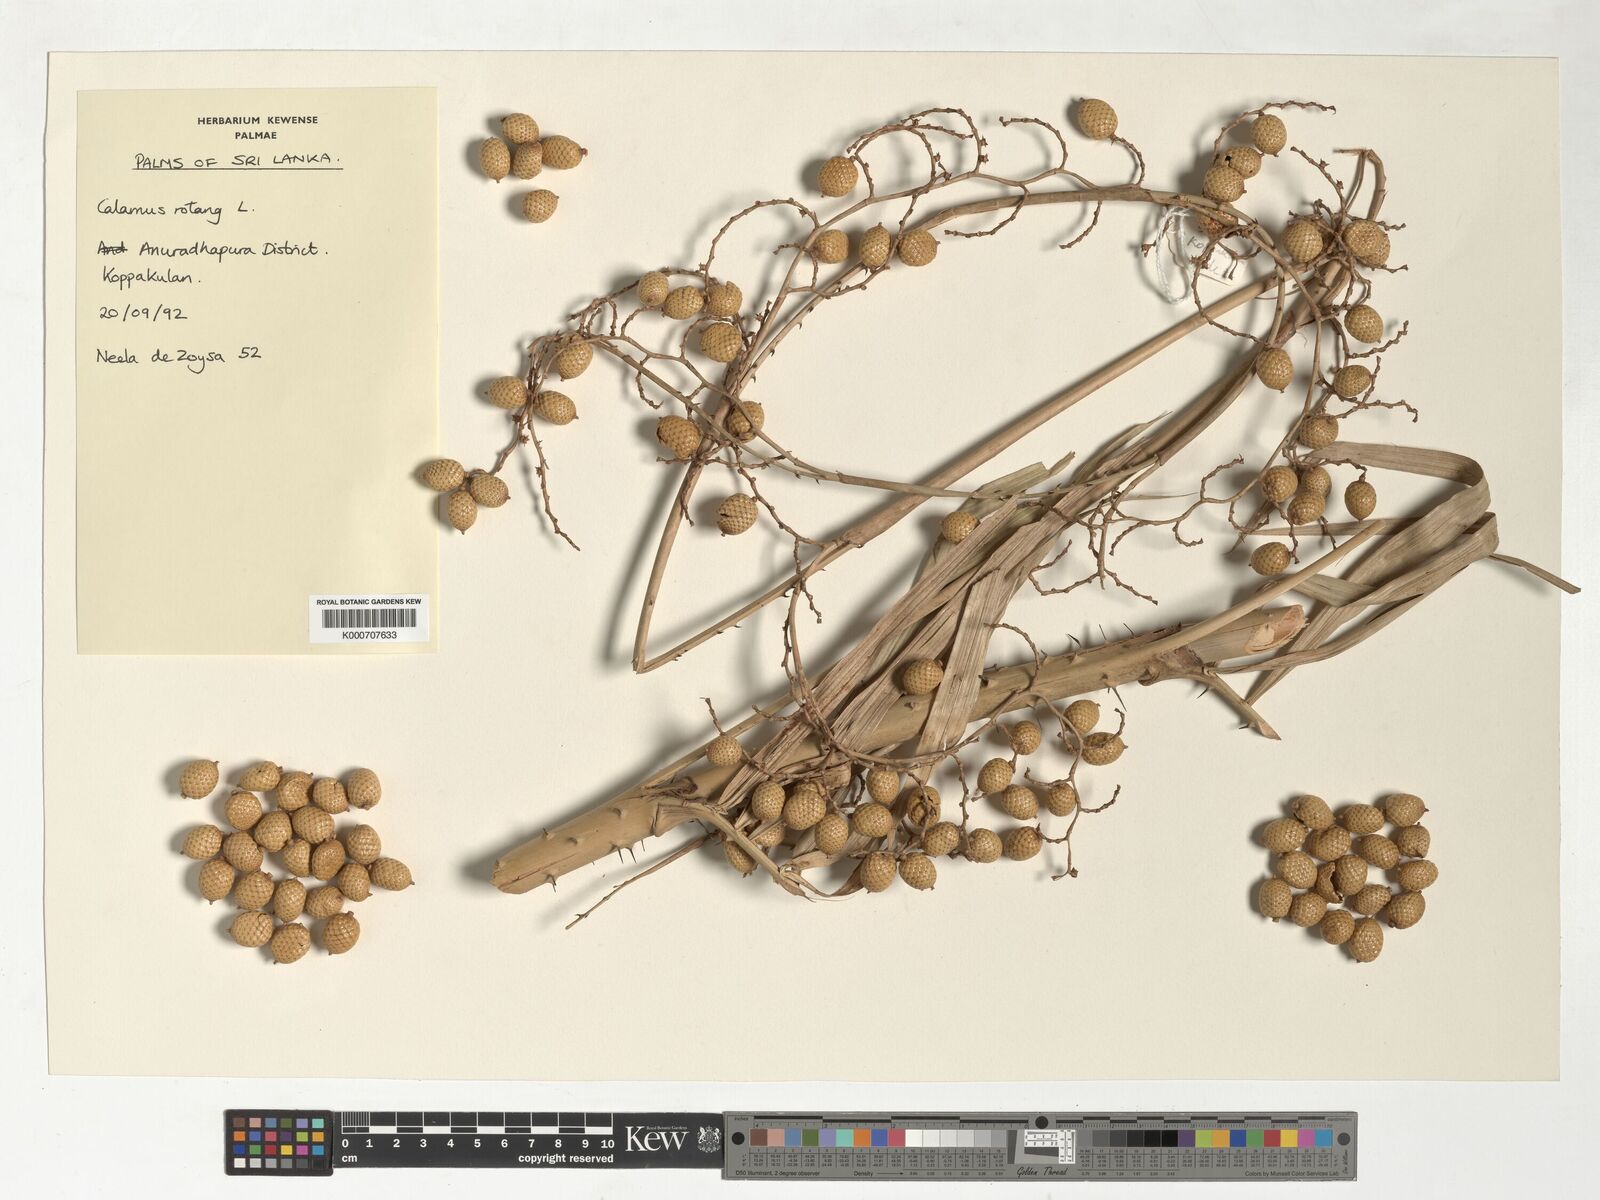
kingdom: Plantae
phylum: Tracheophyta
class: Liliopsida
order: Arecales
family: Arecaceae
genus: Calamus
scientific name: Calamus rotang
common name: Rattan cane
